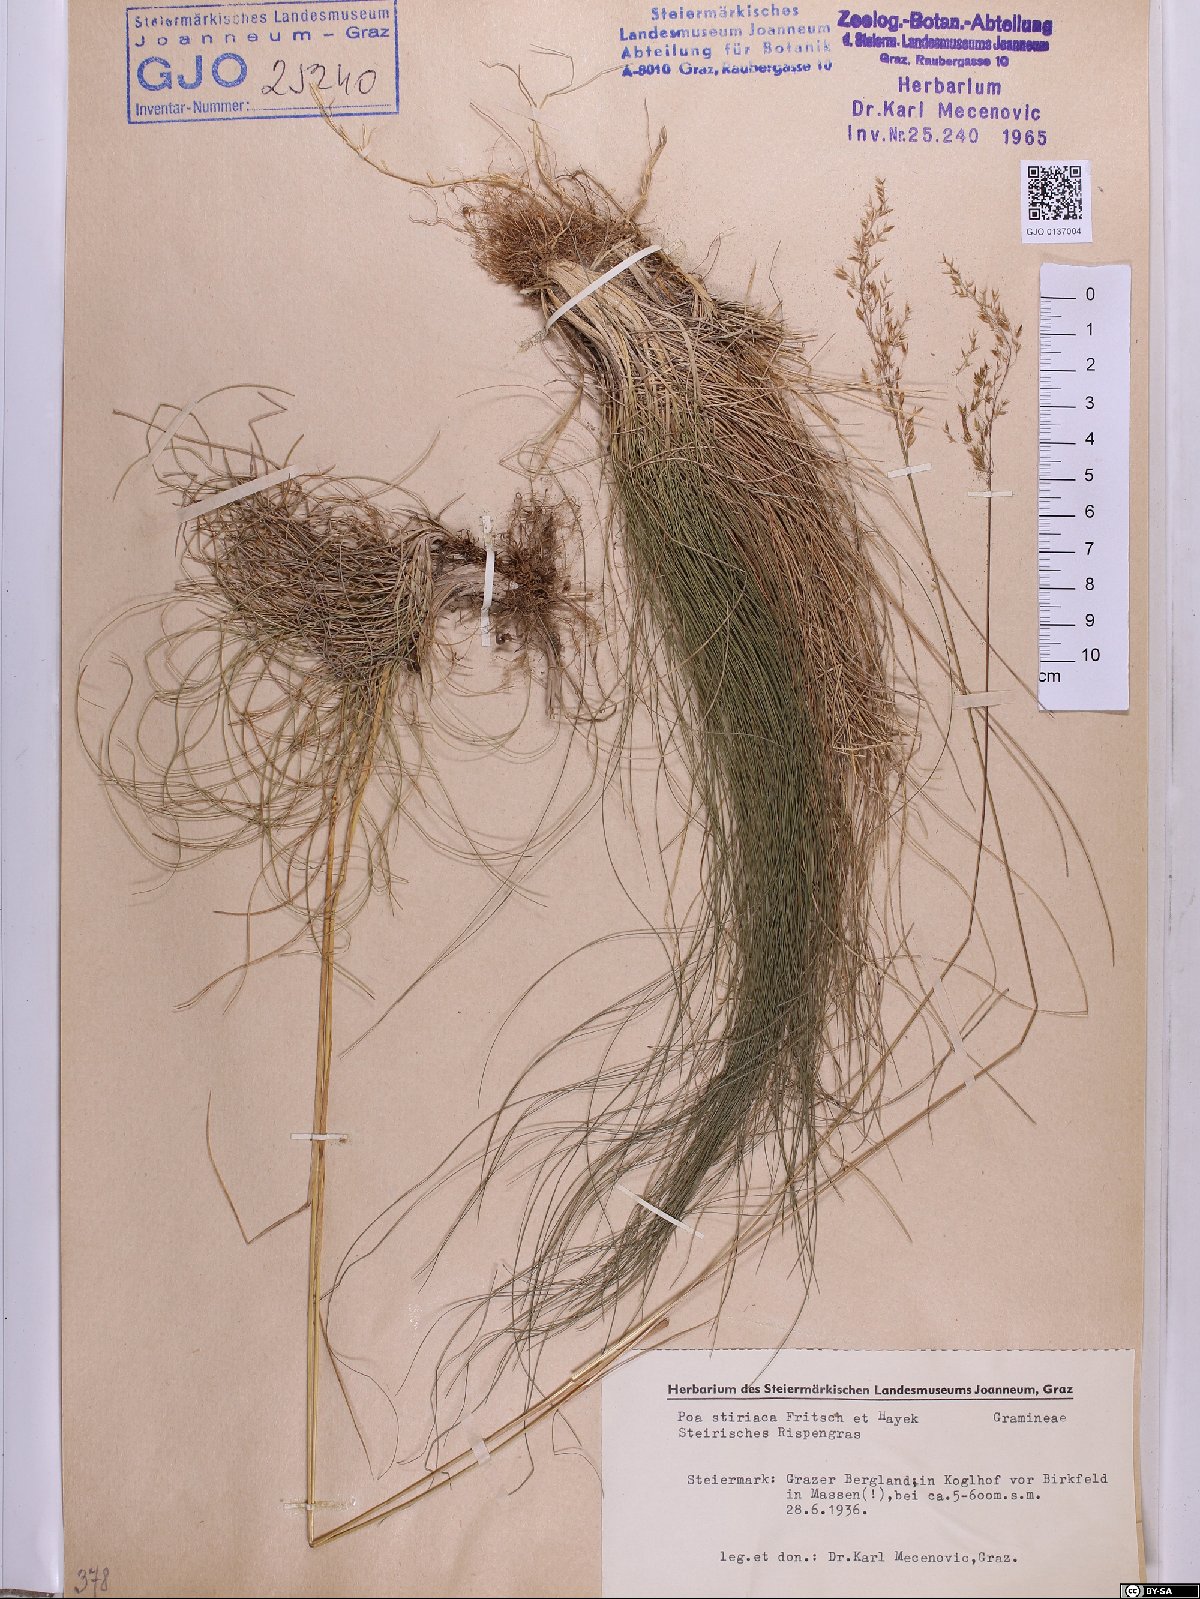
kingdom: Plantae
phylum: Tracheophyta
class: Liliopsida
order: Poales
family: Poaceae
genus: Poa
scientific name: Poa stiriaca
